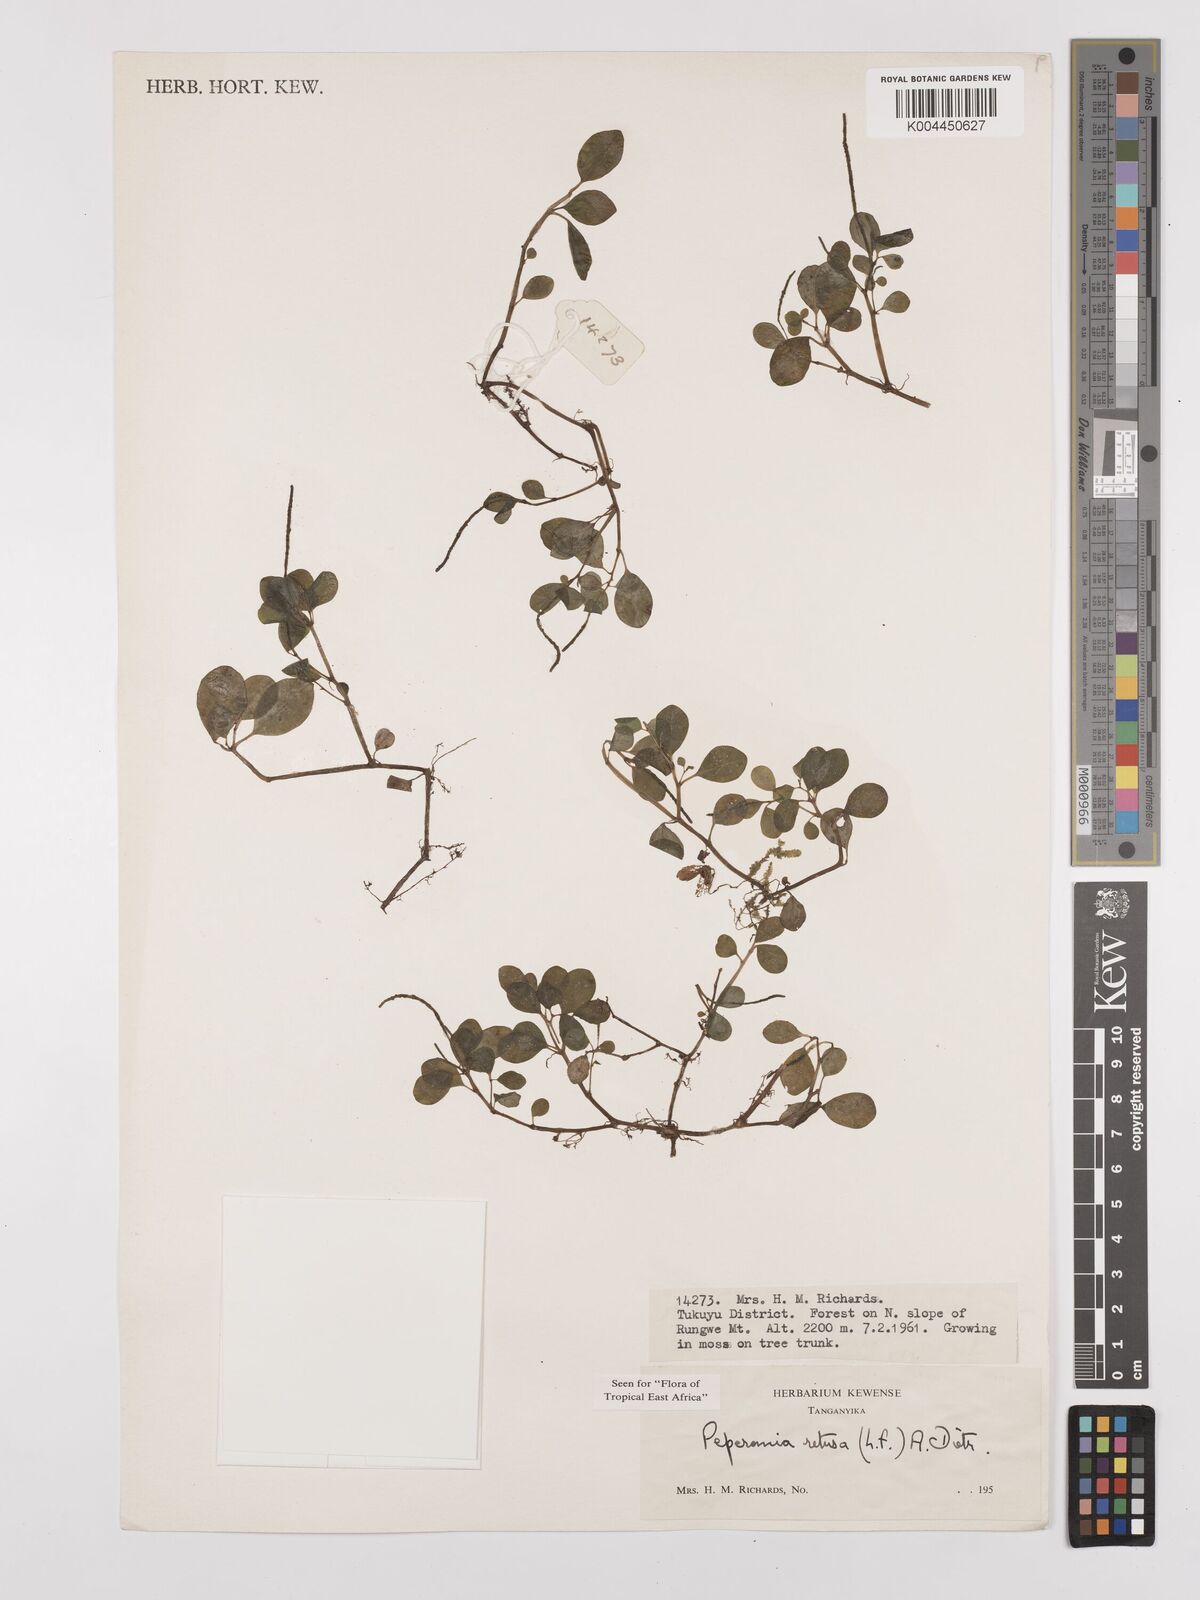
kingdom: Plantae
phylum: Tracheophyta
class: Magnoliopsida
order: Piperales
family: Piperaceae
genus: Peperomia
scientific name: Peperomia retusa
